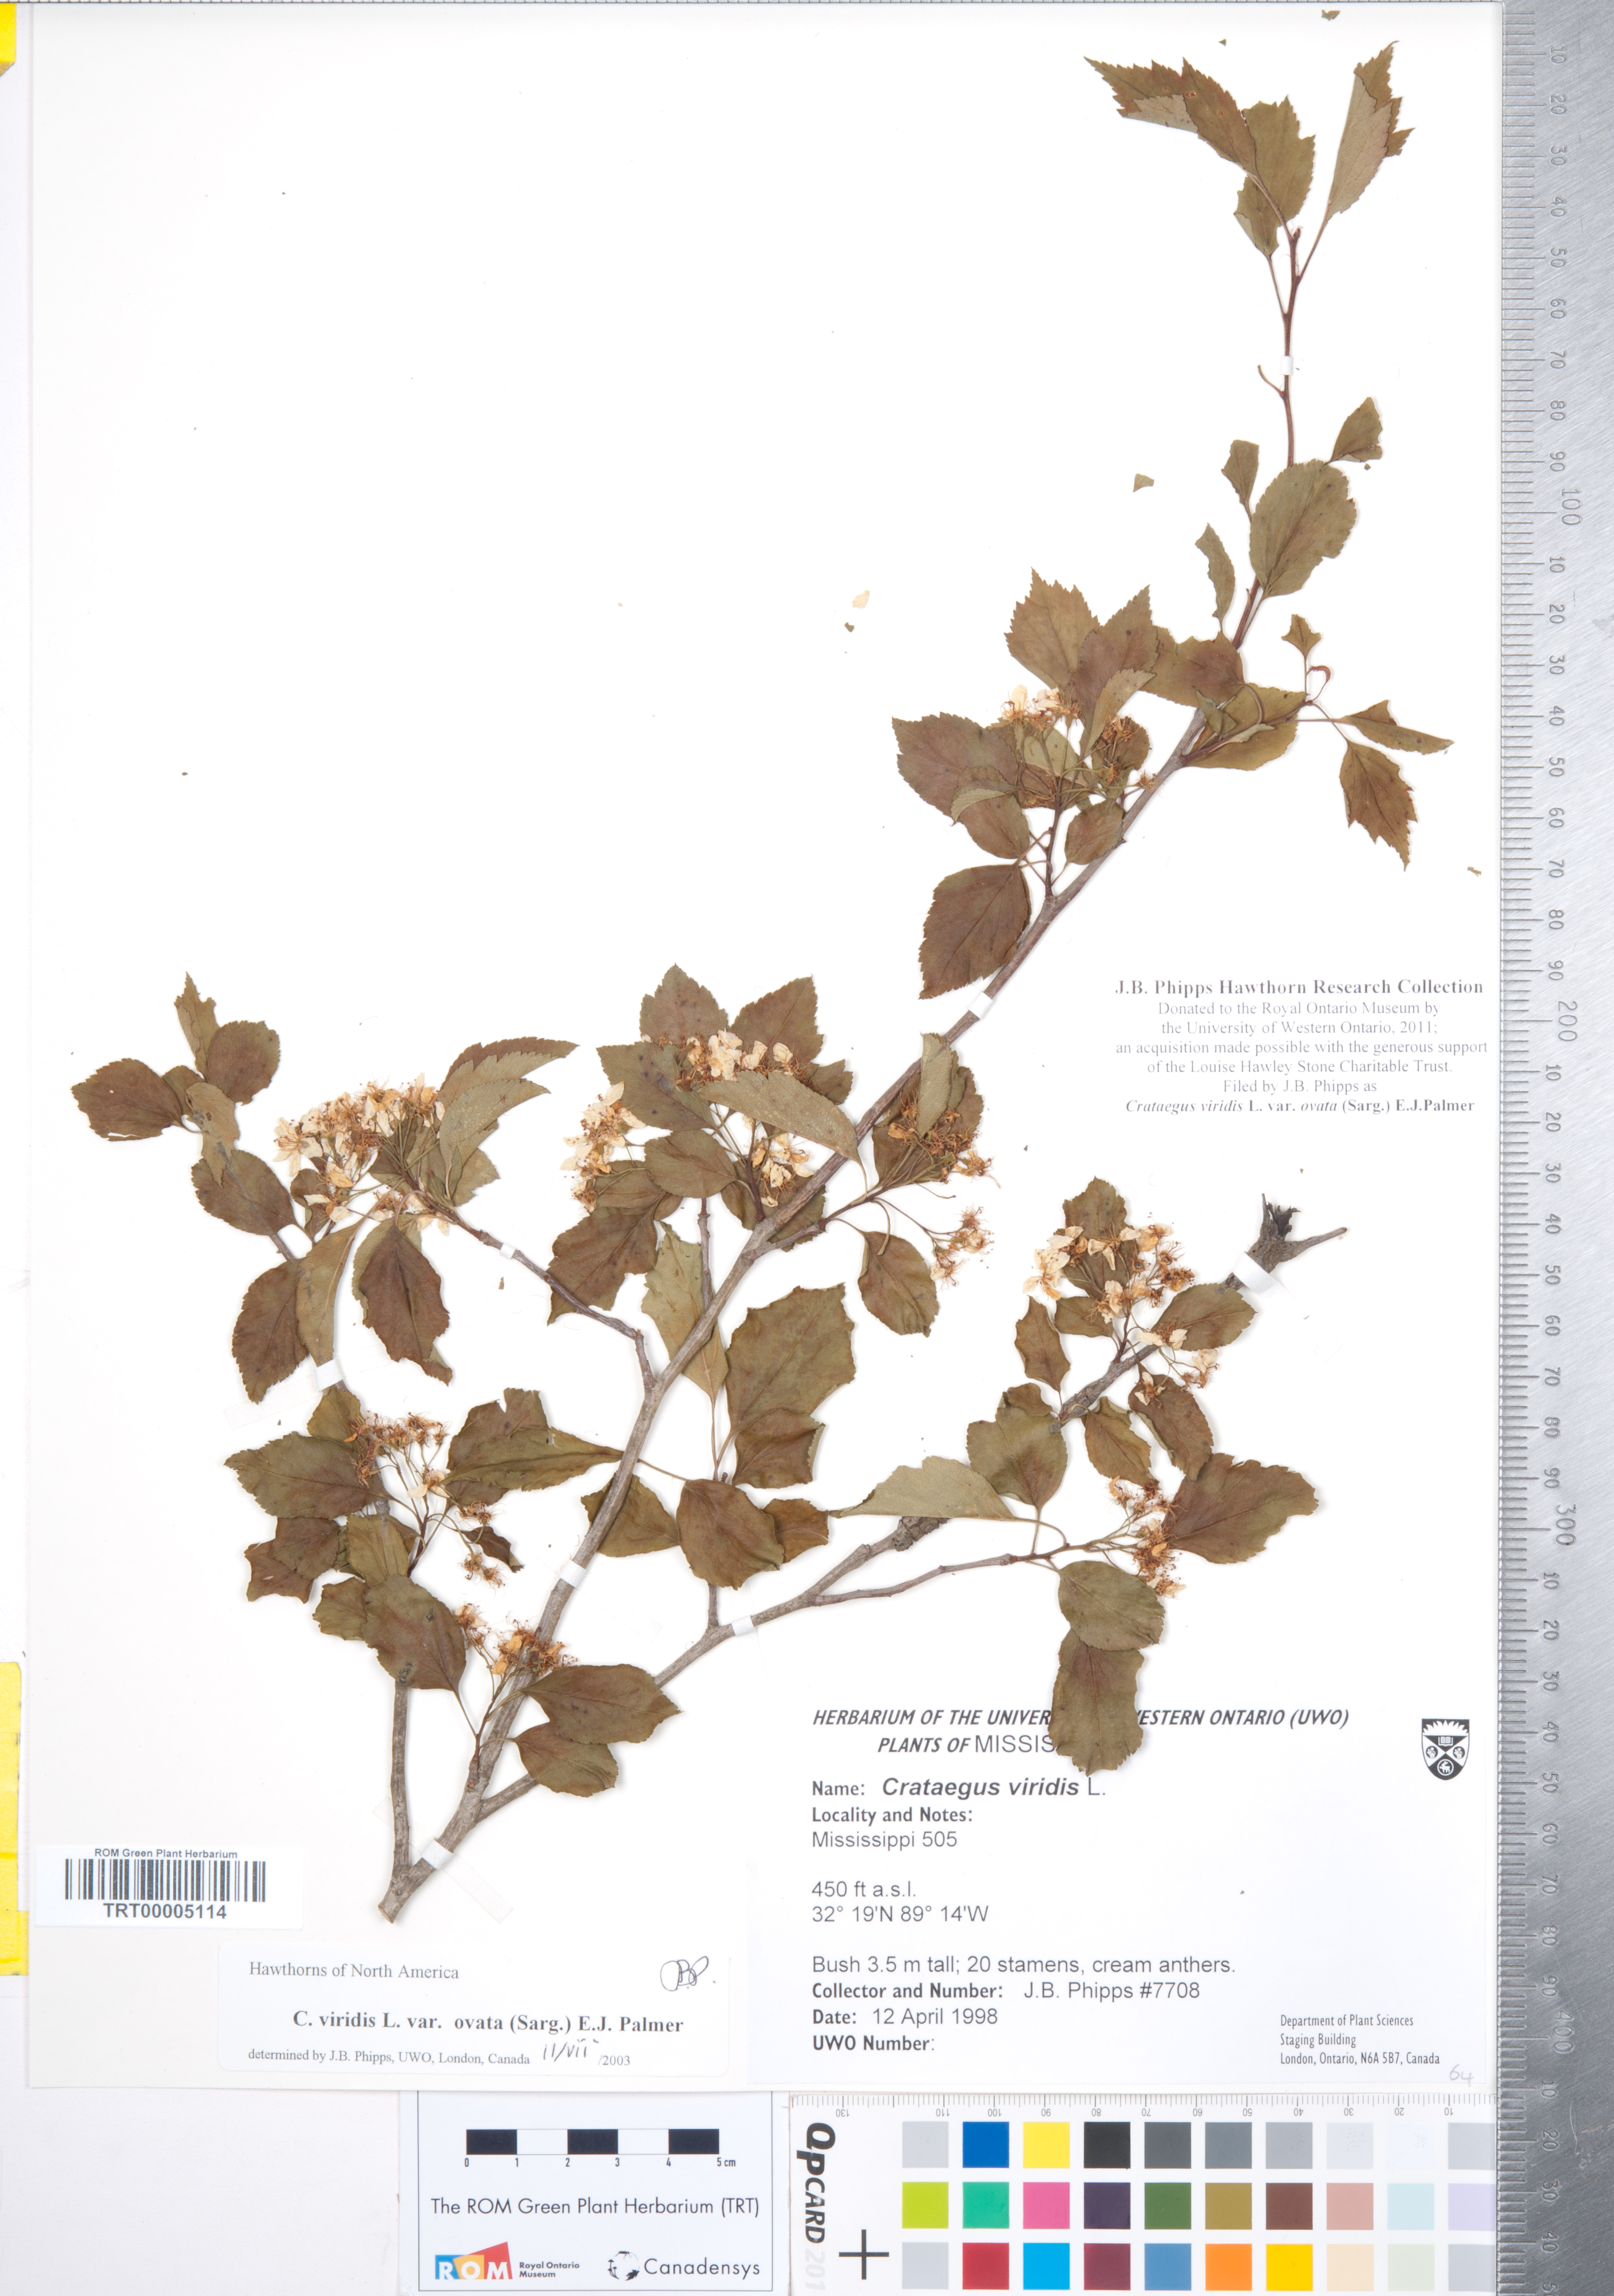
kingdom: Plantae
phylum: Tracheophyta
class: Magnoliopsida
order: Rosales
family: Rosaceae
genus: Crataegus
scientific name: Crataegus viridis
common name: Southernthorn
